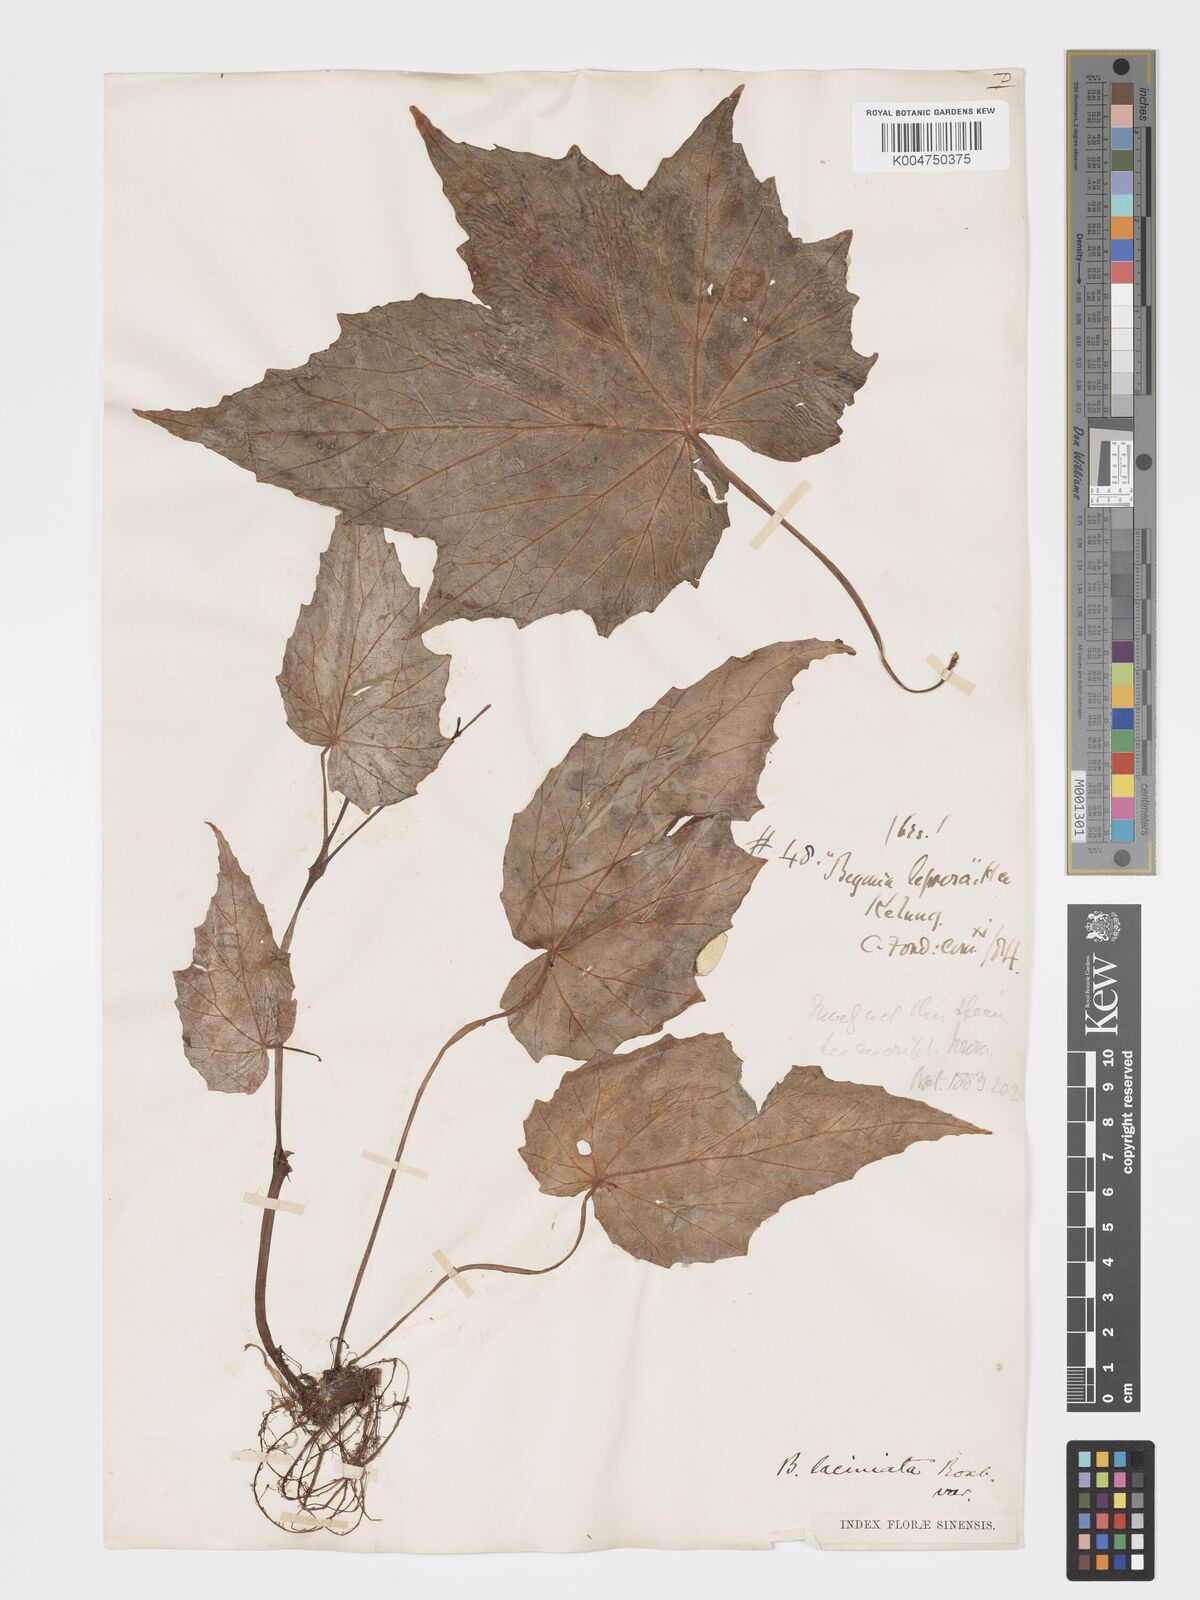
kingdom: Plantae
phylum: Tracheophyta
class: Magnoliopsida
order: Cucurbitales
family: Begoniaceae
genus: Begonia
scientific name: Begonia palmata
